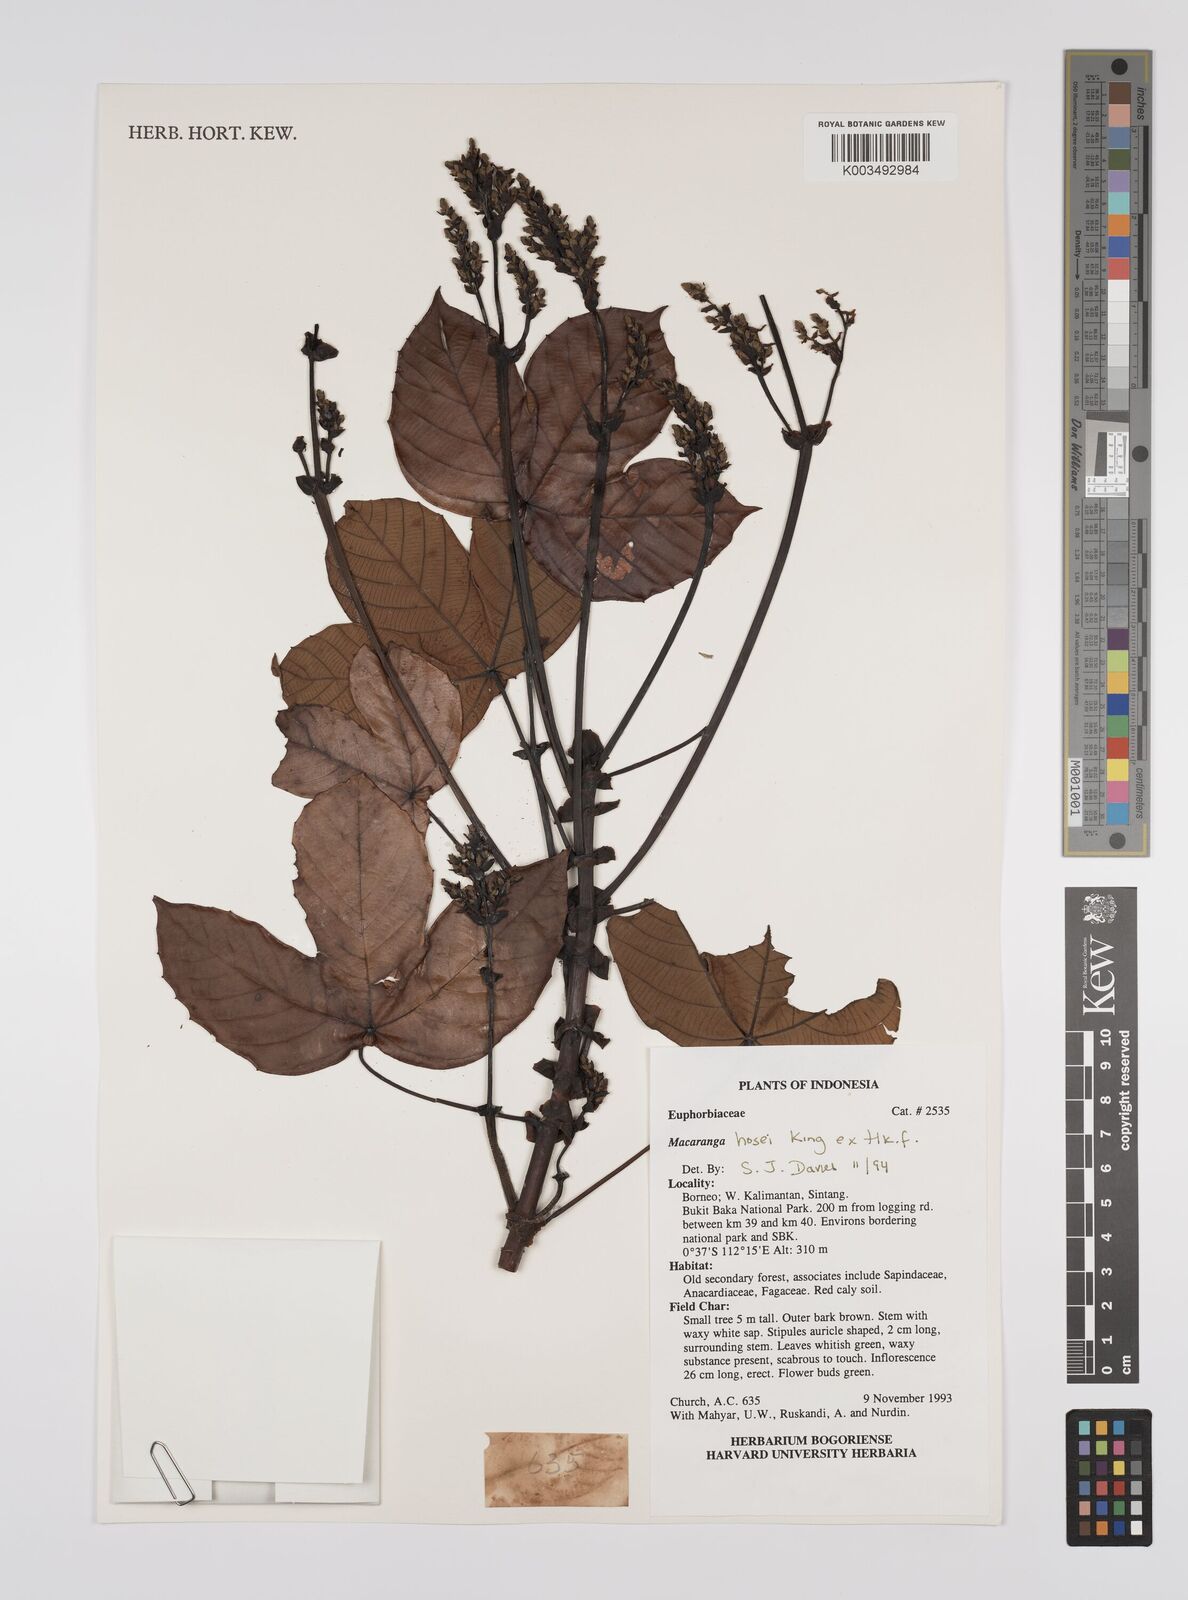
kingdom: Plantae
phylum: Tracheophyta
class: Magnoliopsida
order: Malpighiales
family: Euphorbiaceae
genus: Macaranga
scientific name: Macaranga hosei
